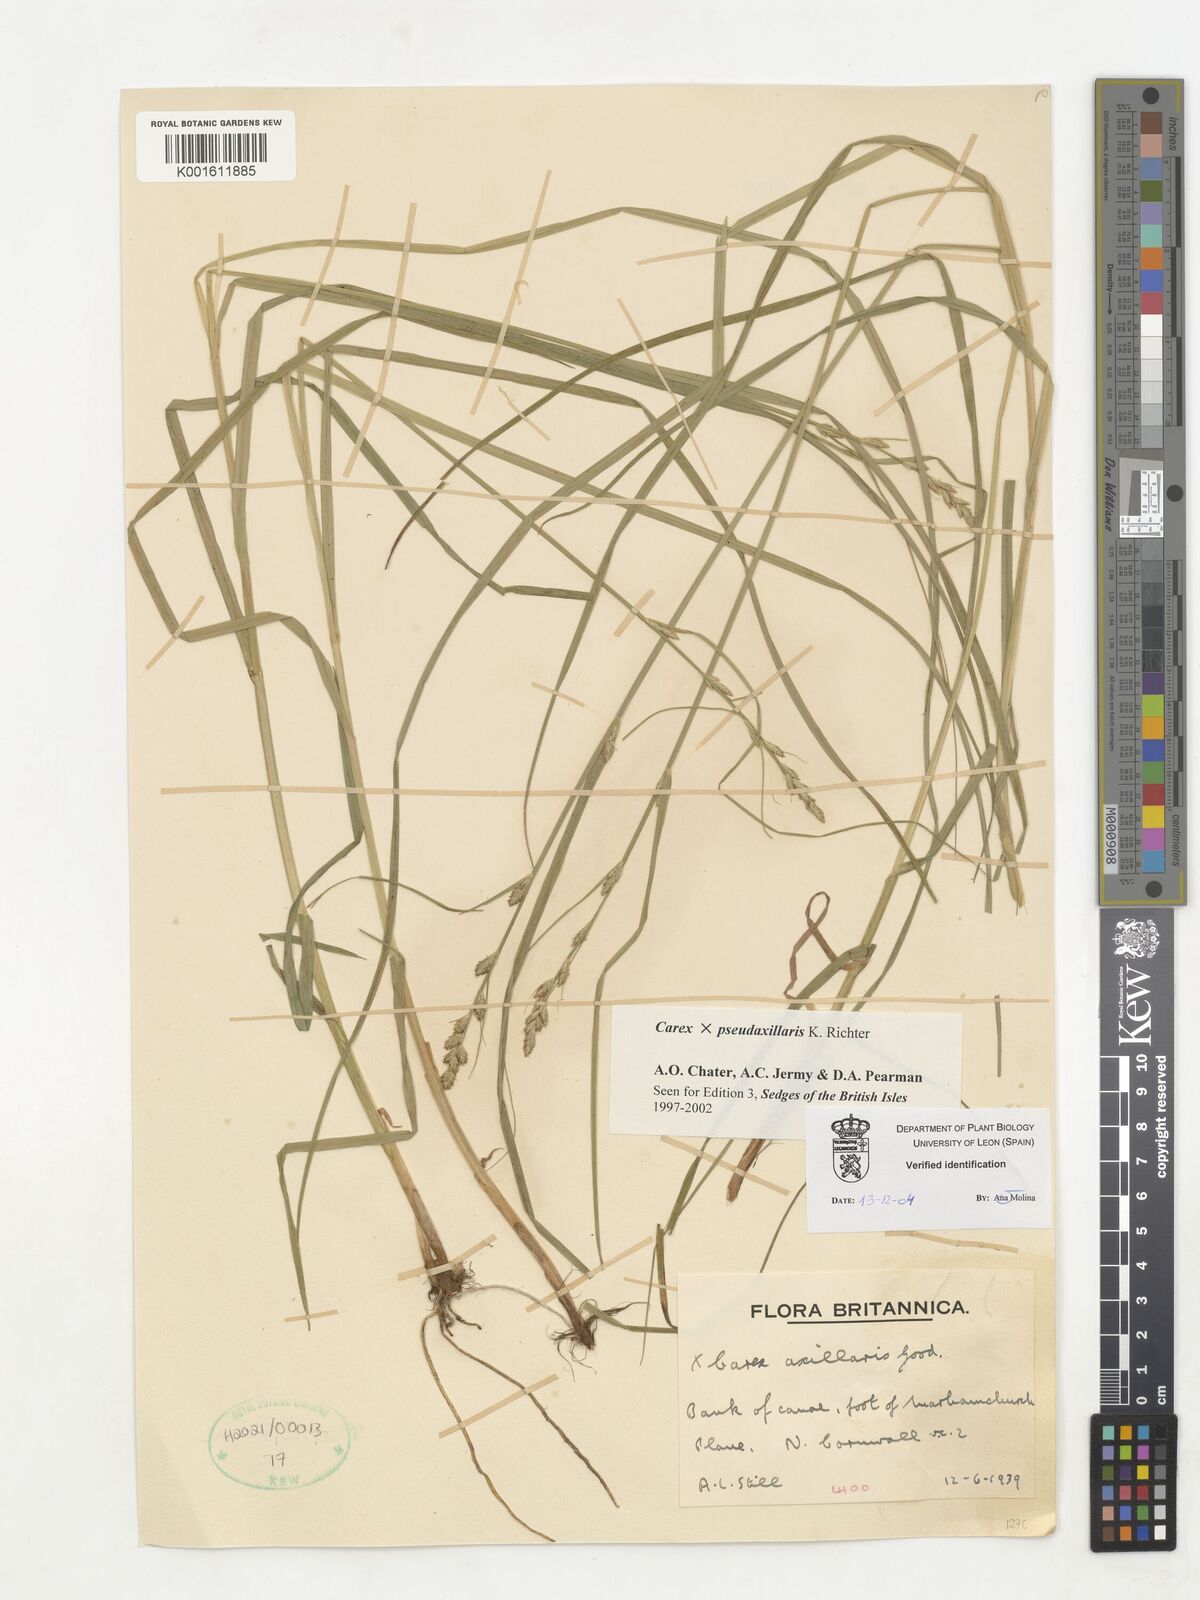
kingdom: Plantae
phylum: Tracheophyta
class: Liliopsida
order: Poales
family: Cyperaceae
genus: Carex
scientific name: Carex pseudoaxillaris
